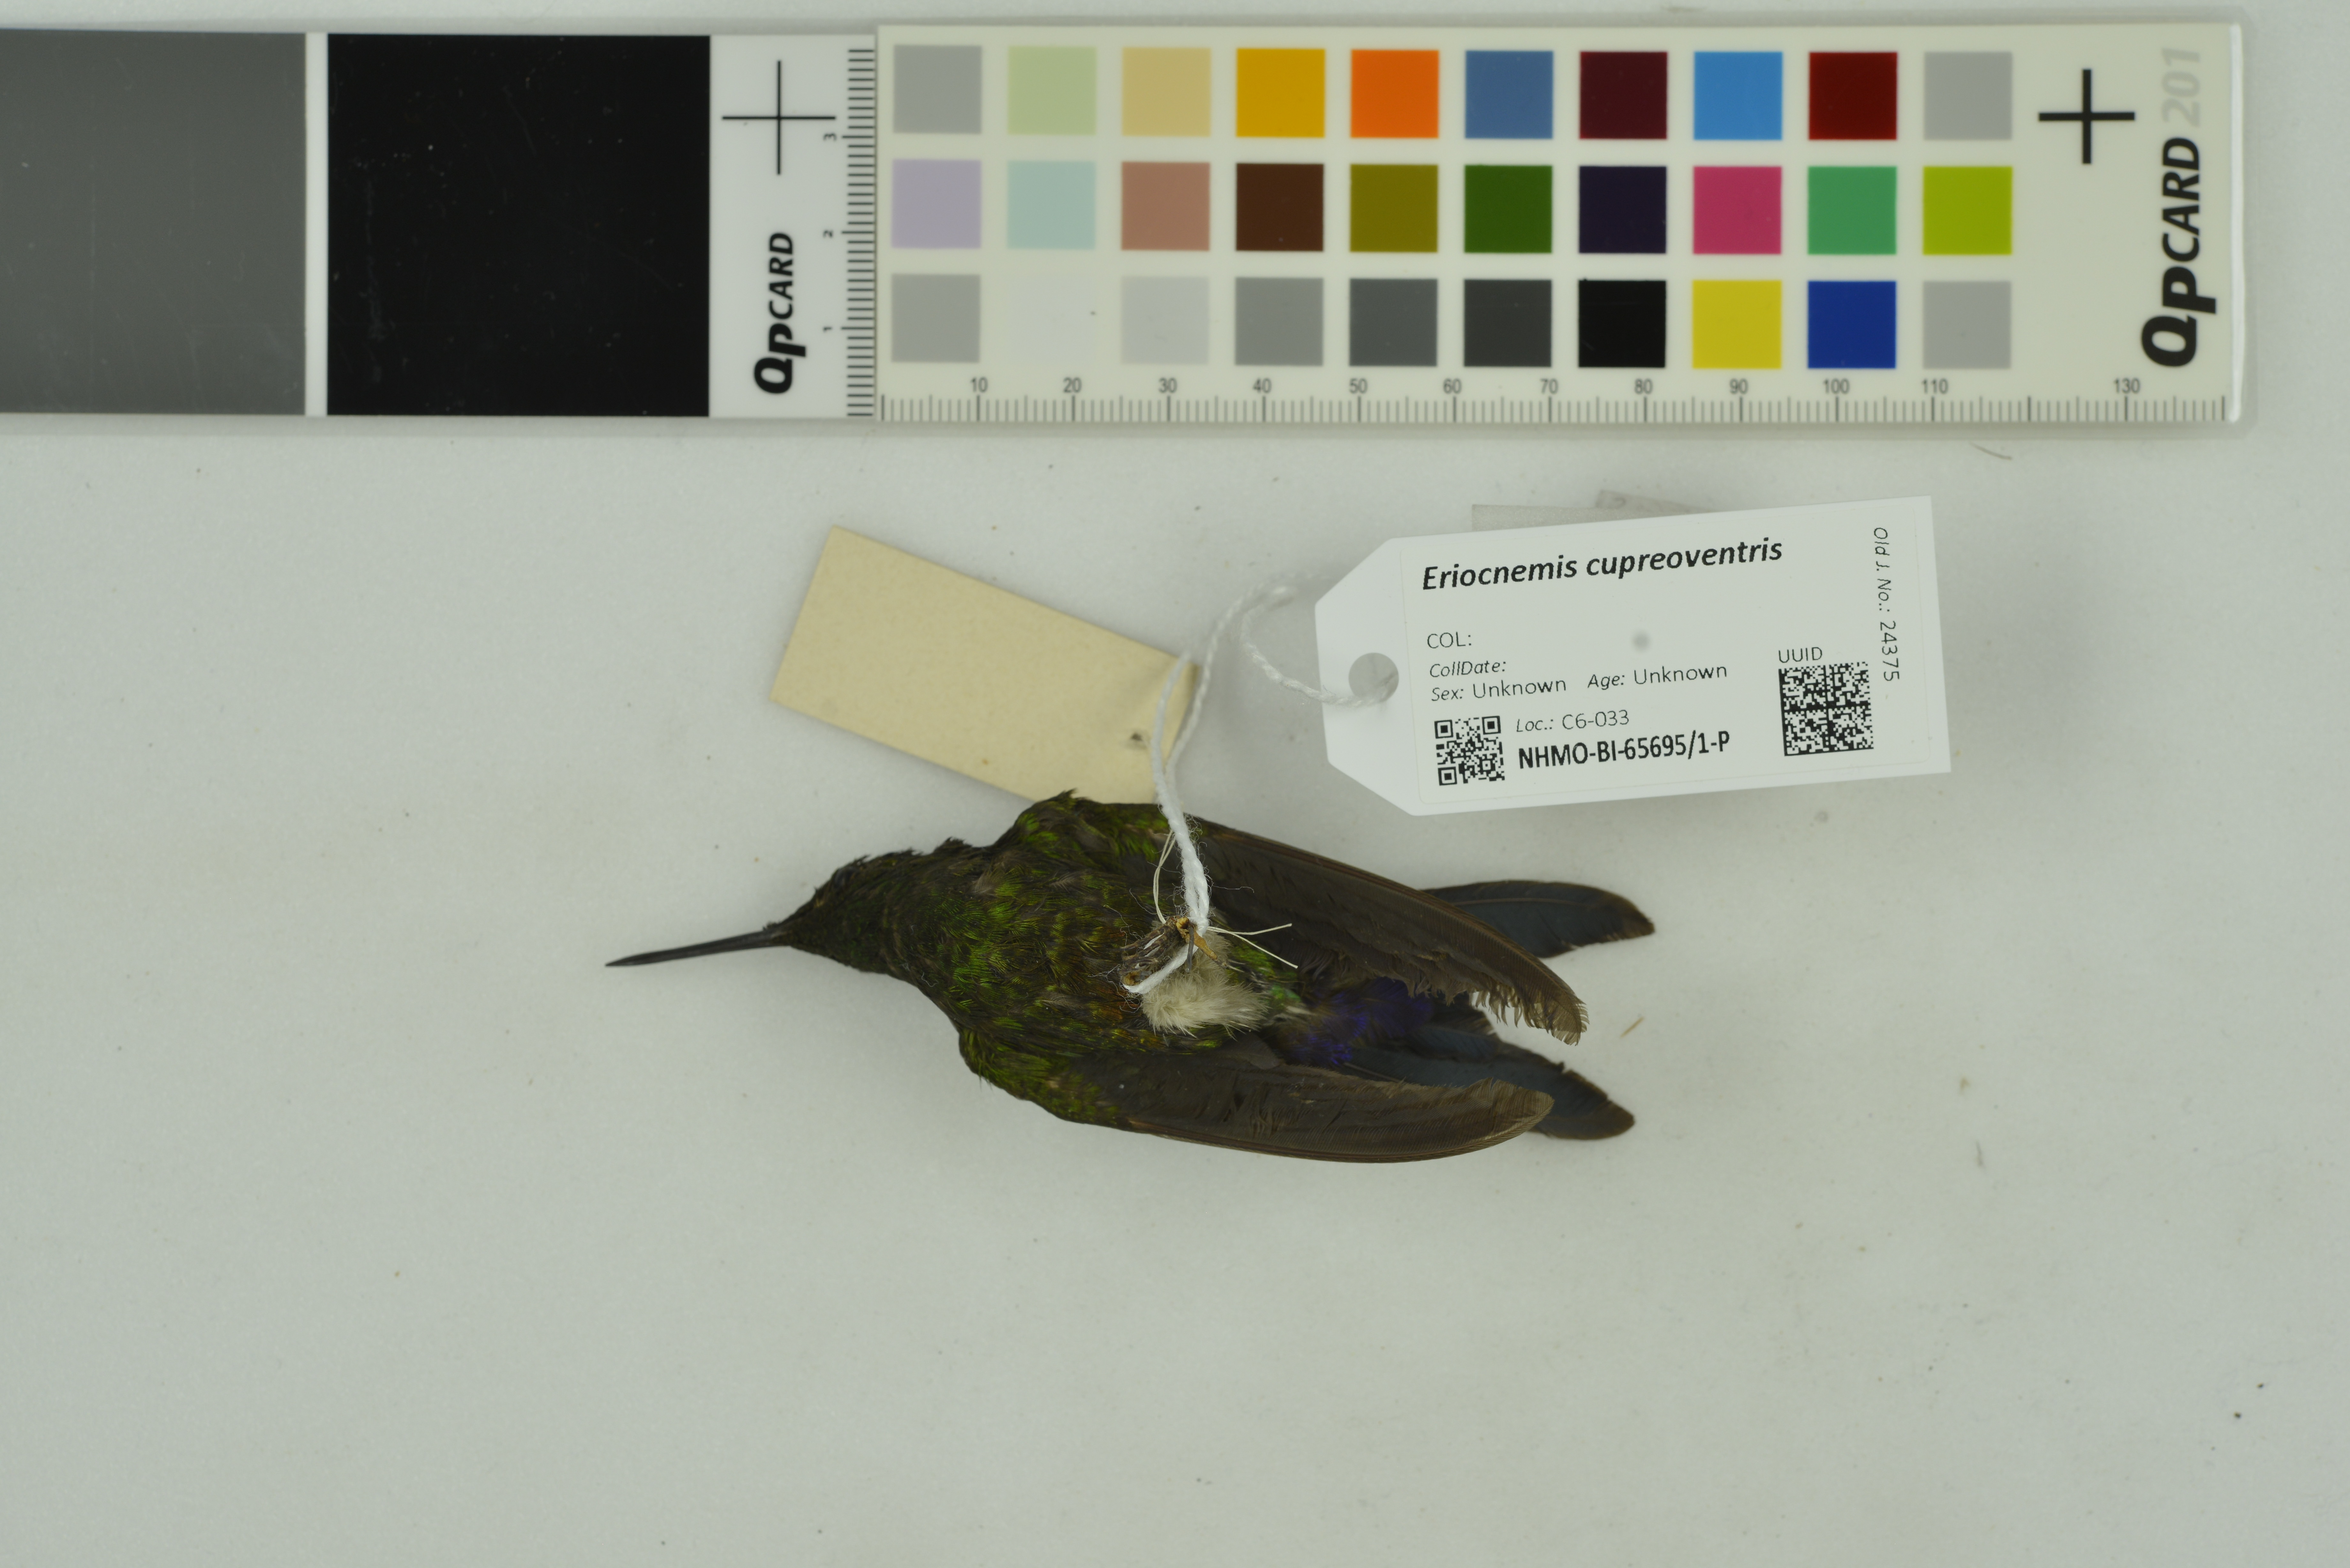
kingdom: Animalia
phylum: Chordata
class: Aves
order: Apodiformes
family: Trochilidae
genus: Eriocnemis
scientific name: Eriocnemis cupreoventris
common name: Coppery-bellied puffleg
